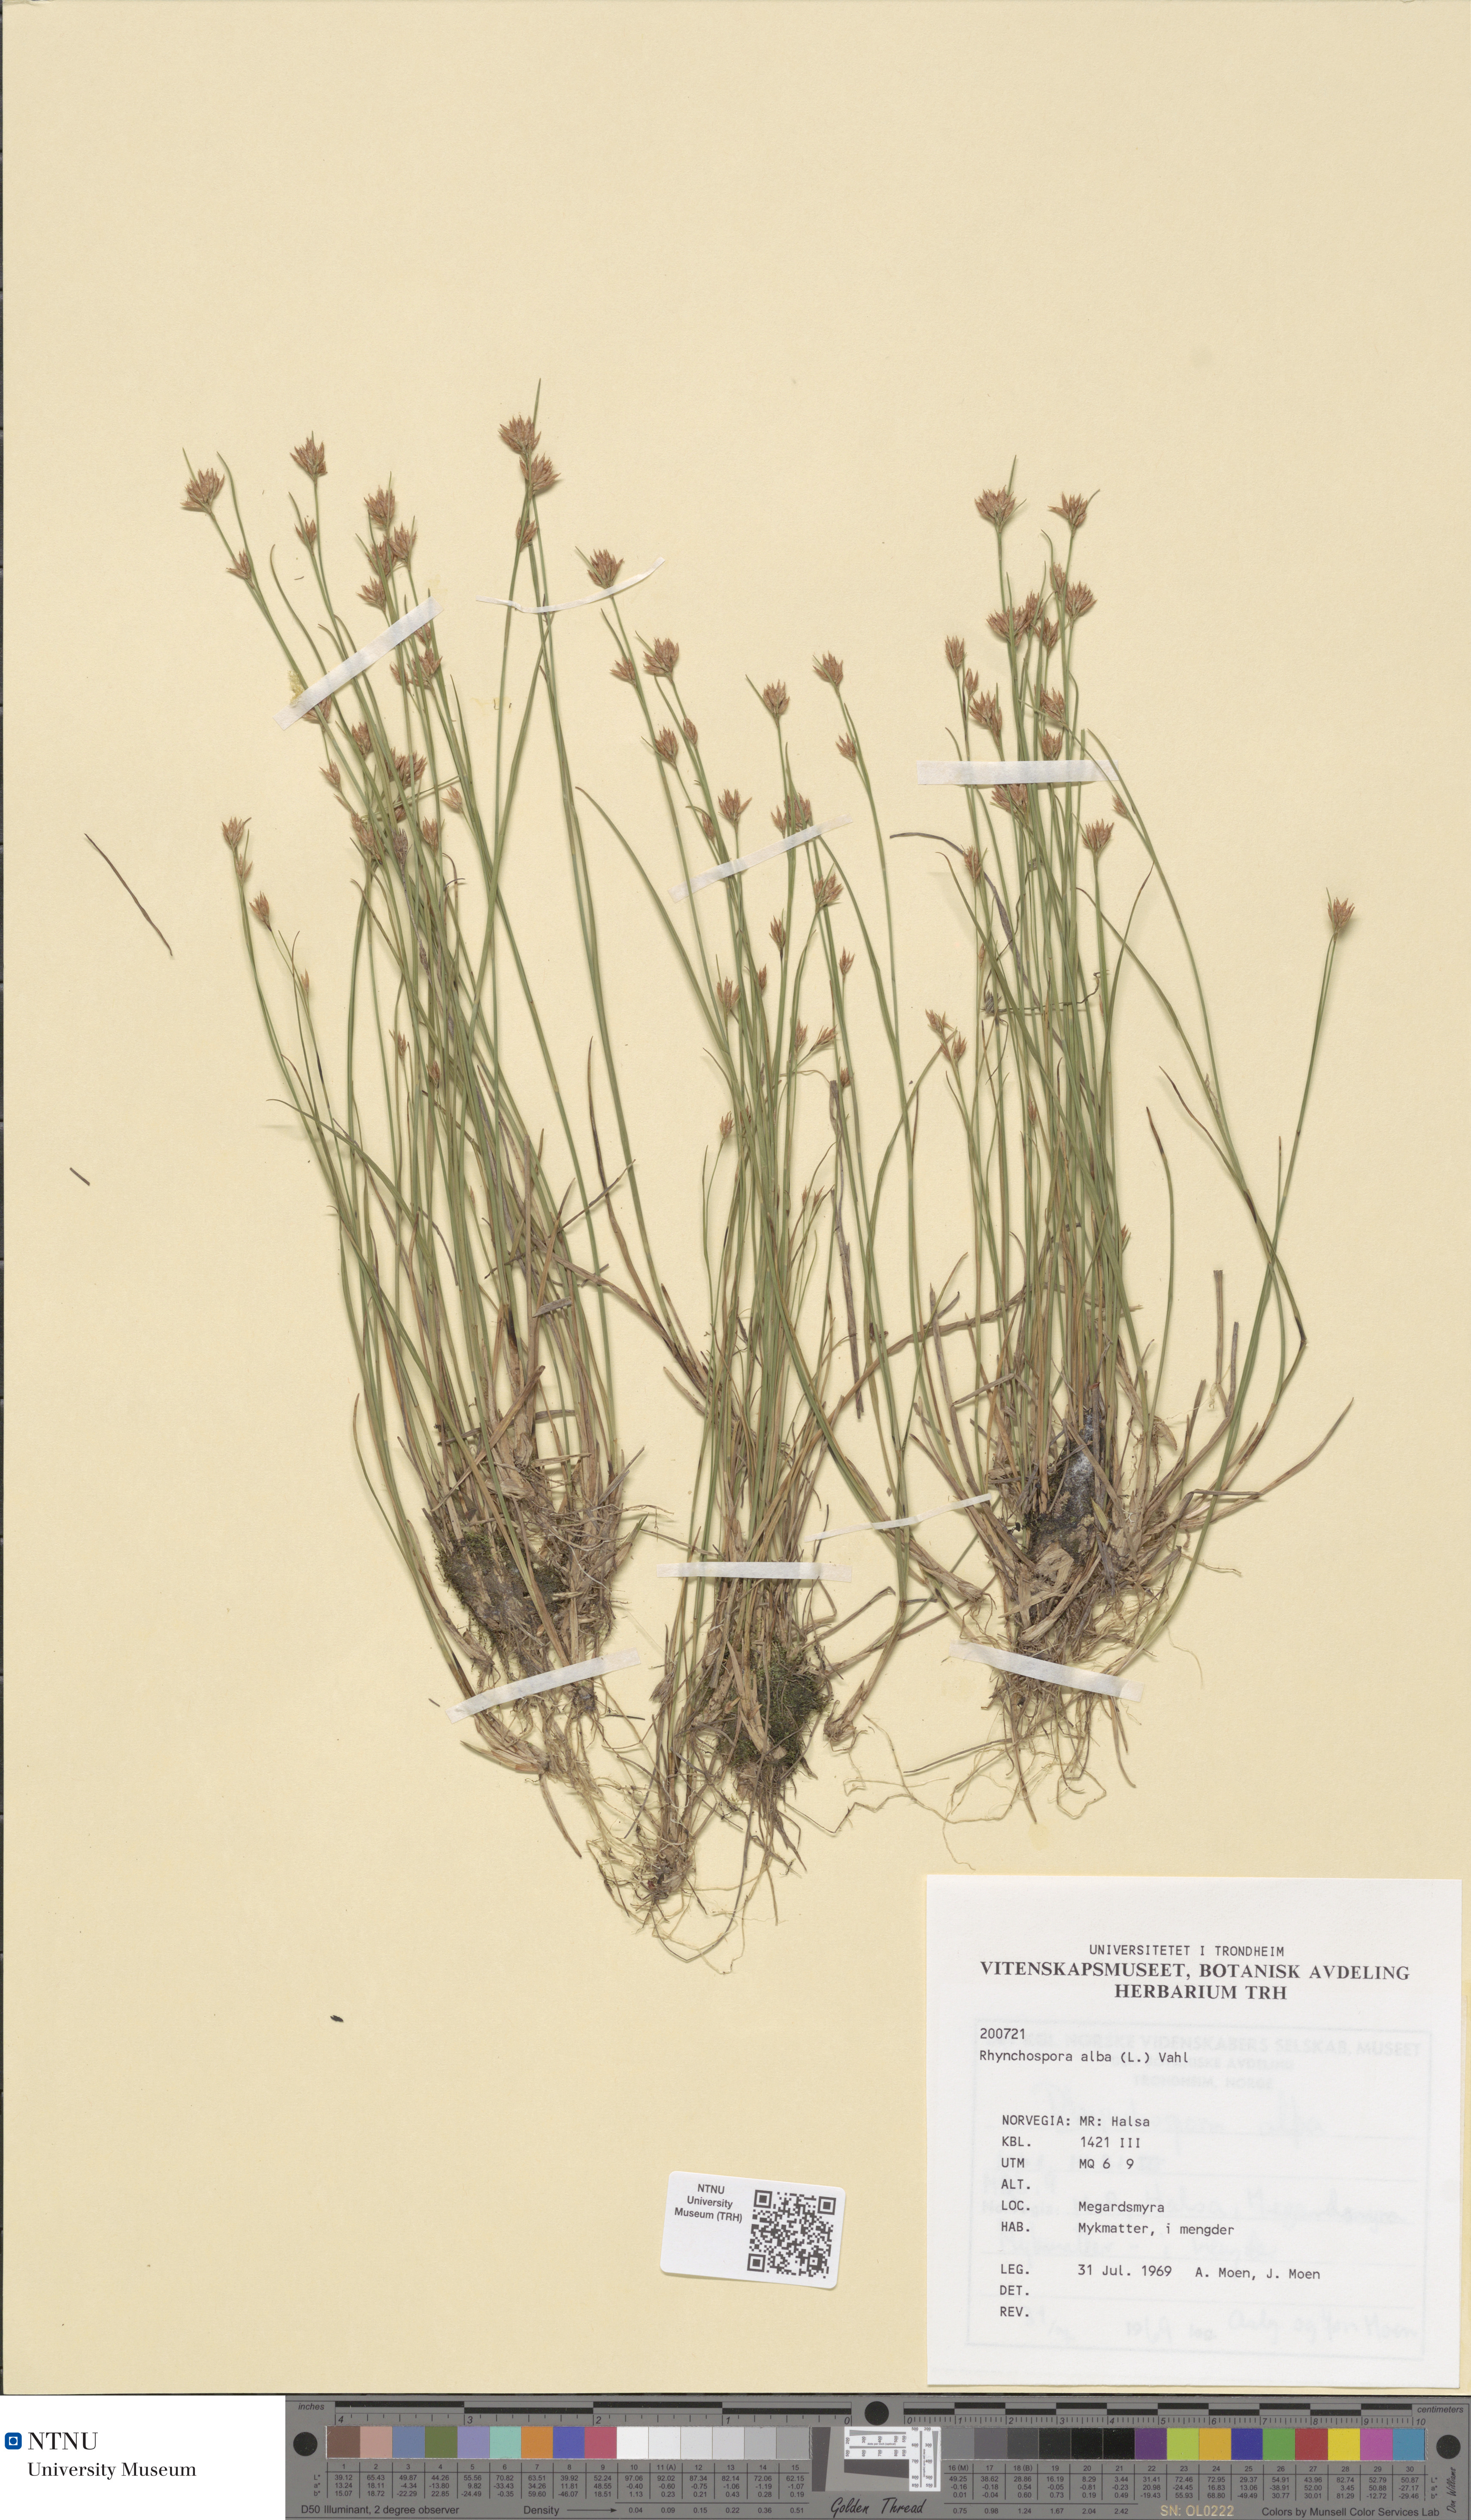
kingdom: Plantae
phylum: Tracheophyta
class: Liliopsida
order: Poales
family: Cyperaceae
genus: Rhynchospora
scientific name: Rhynchospora alba
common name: White beak-sedge
